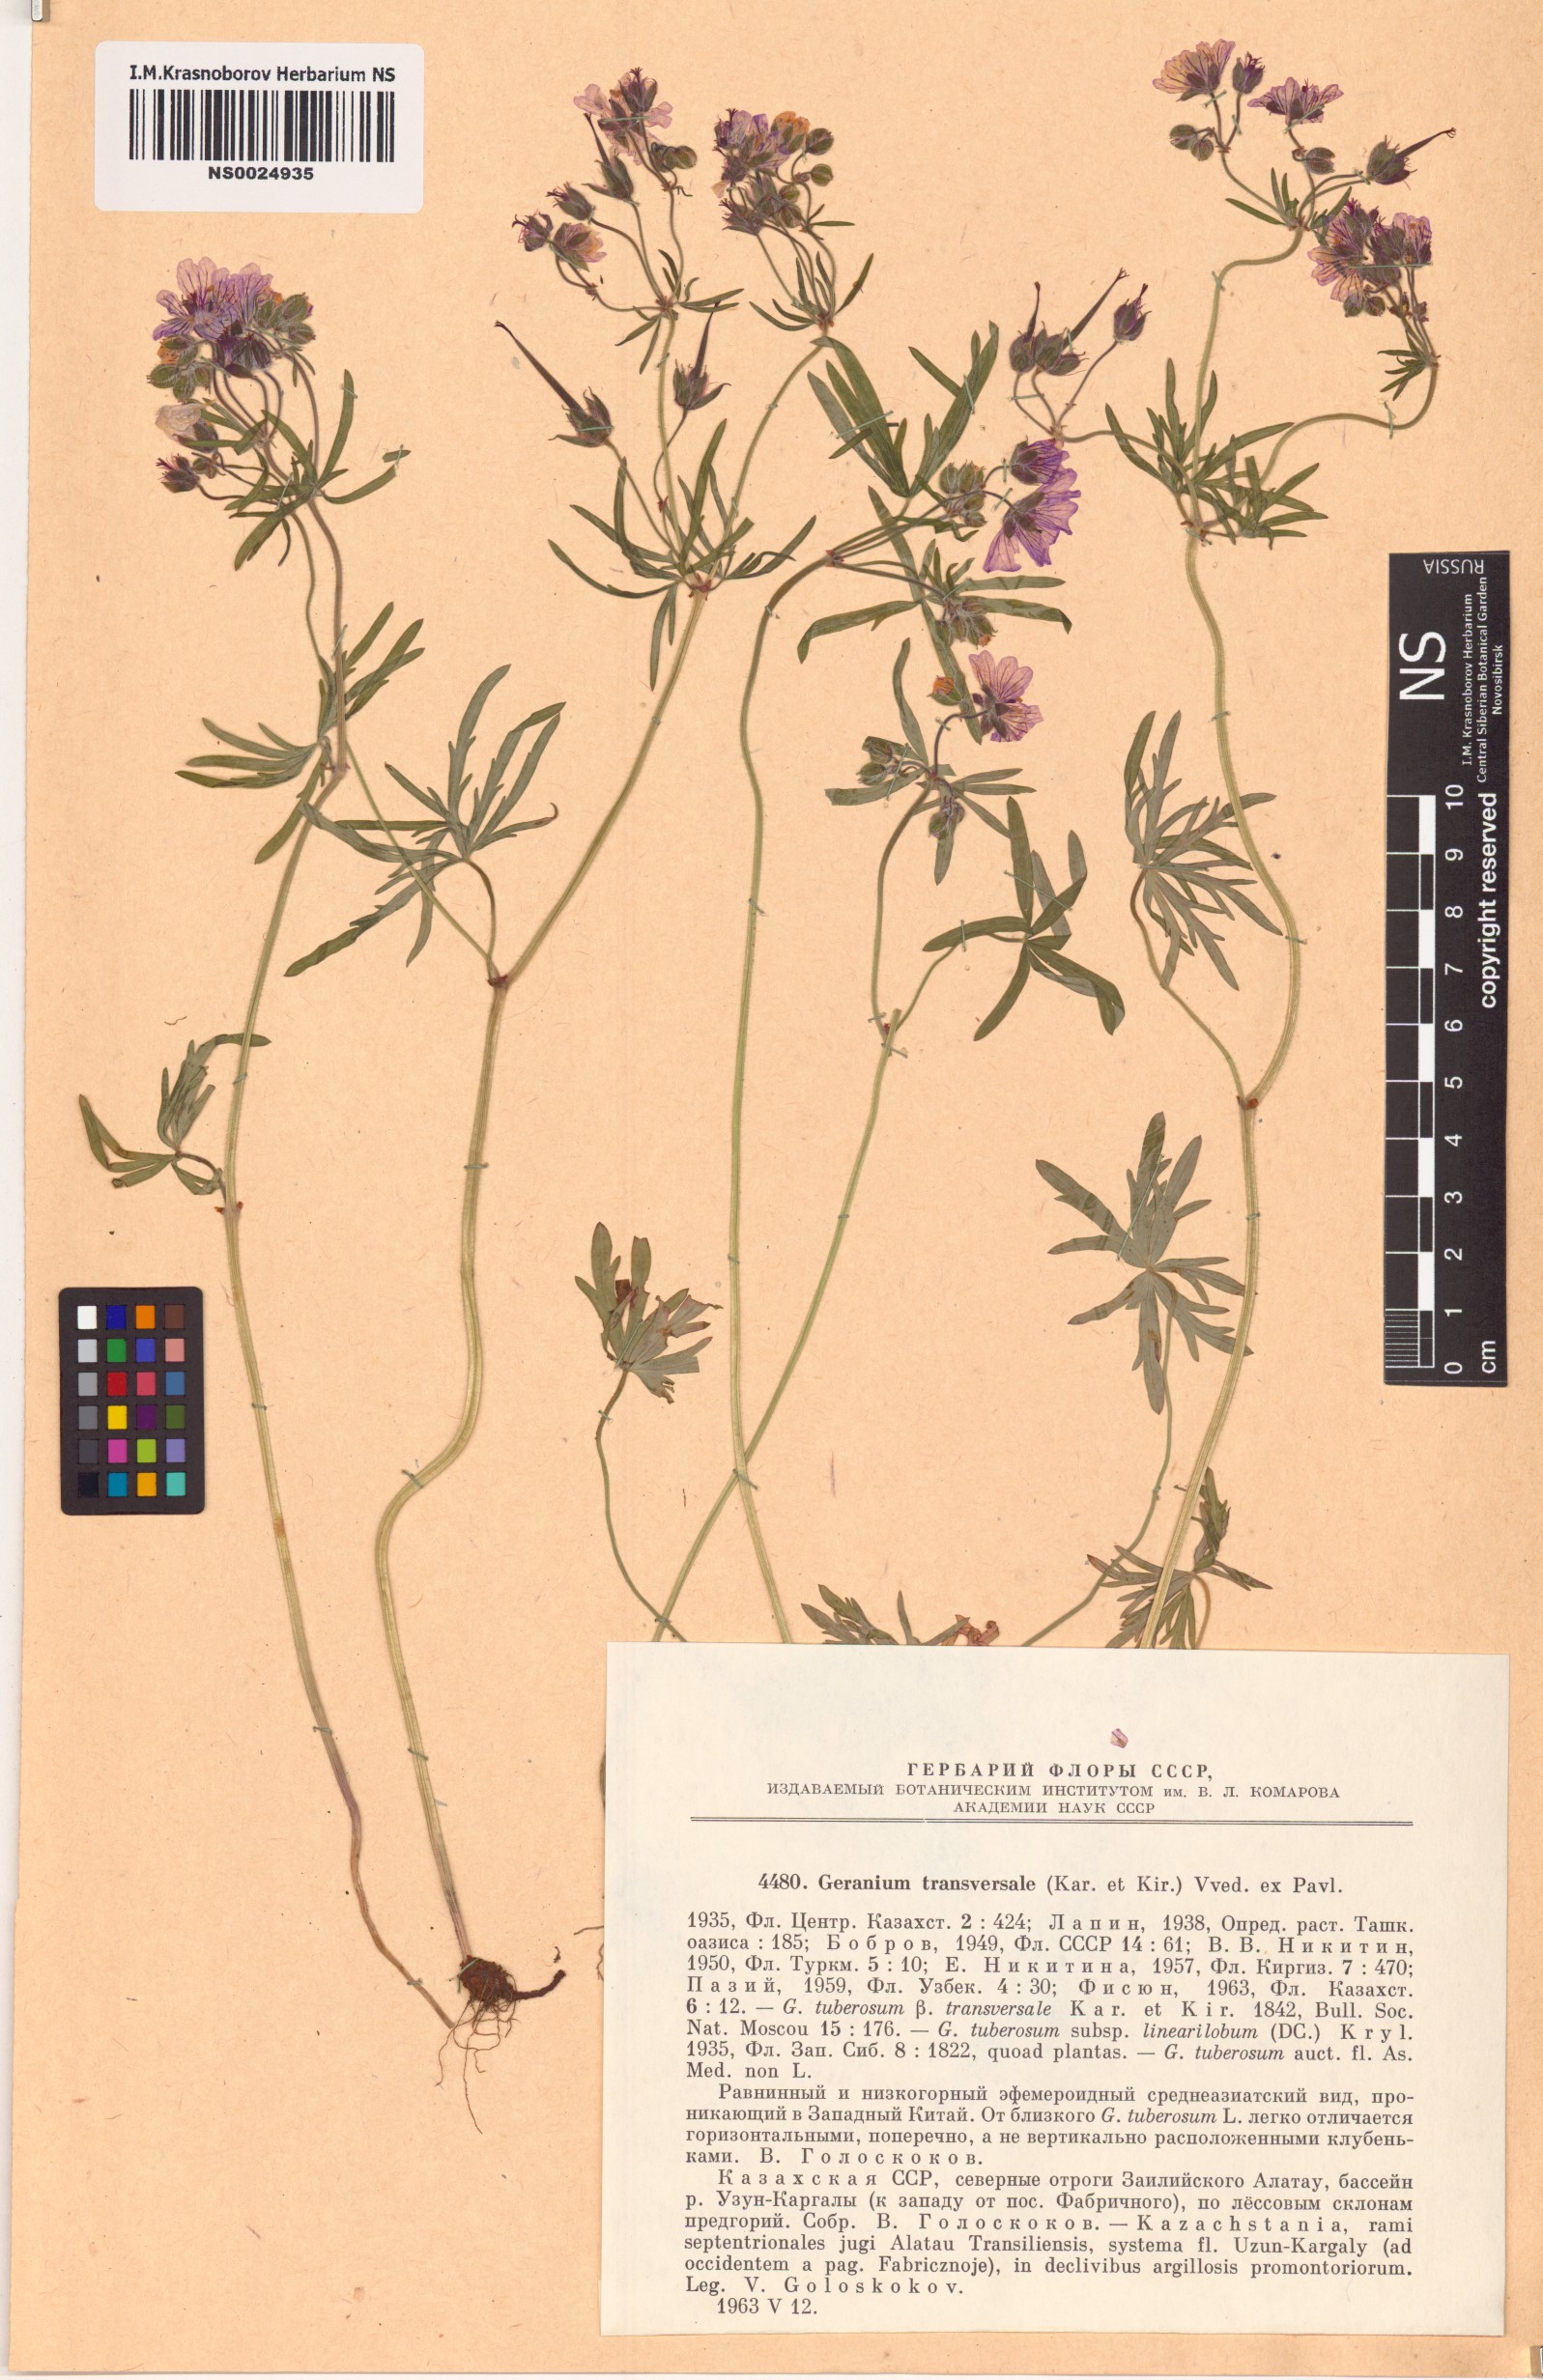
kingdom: Plantae
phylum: Tracheophyta
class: Magnoliopsida
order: Geraniales
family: Geraniaceae
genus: Geranium
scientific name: Geranium linearilobum
